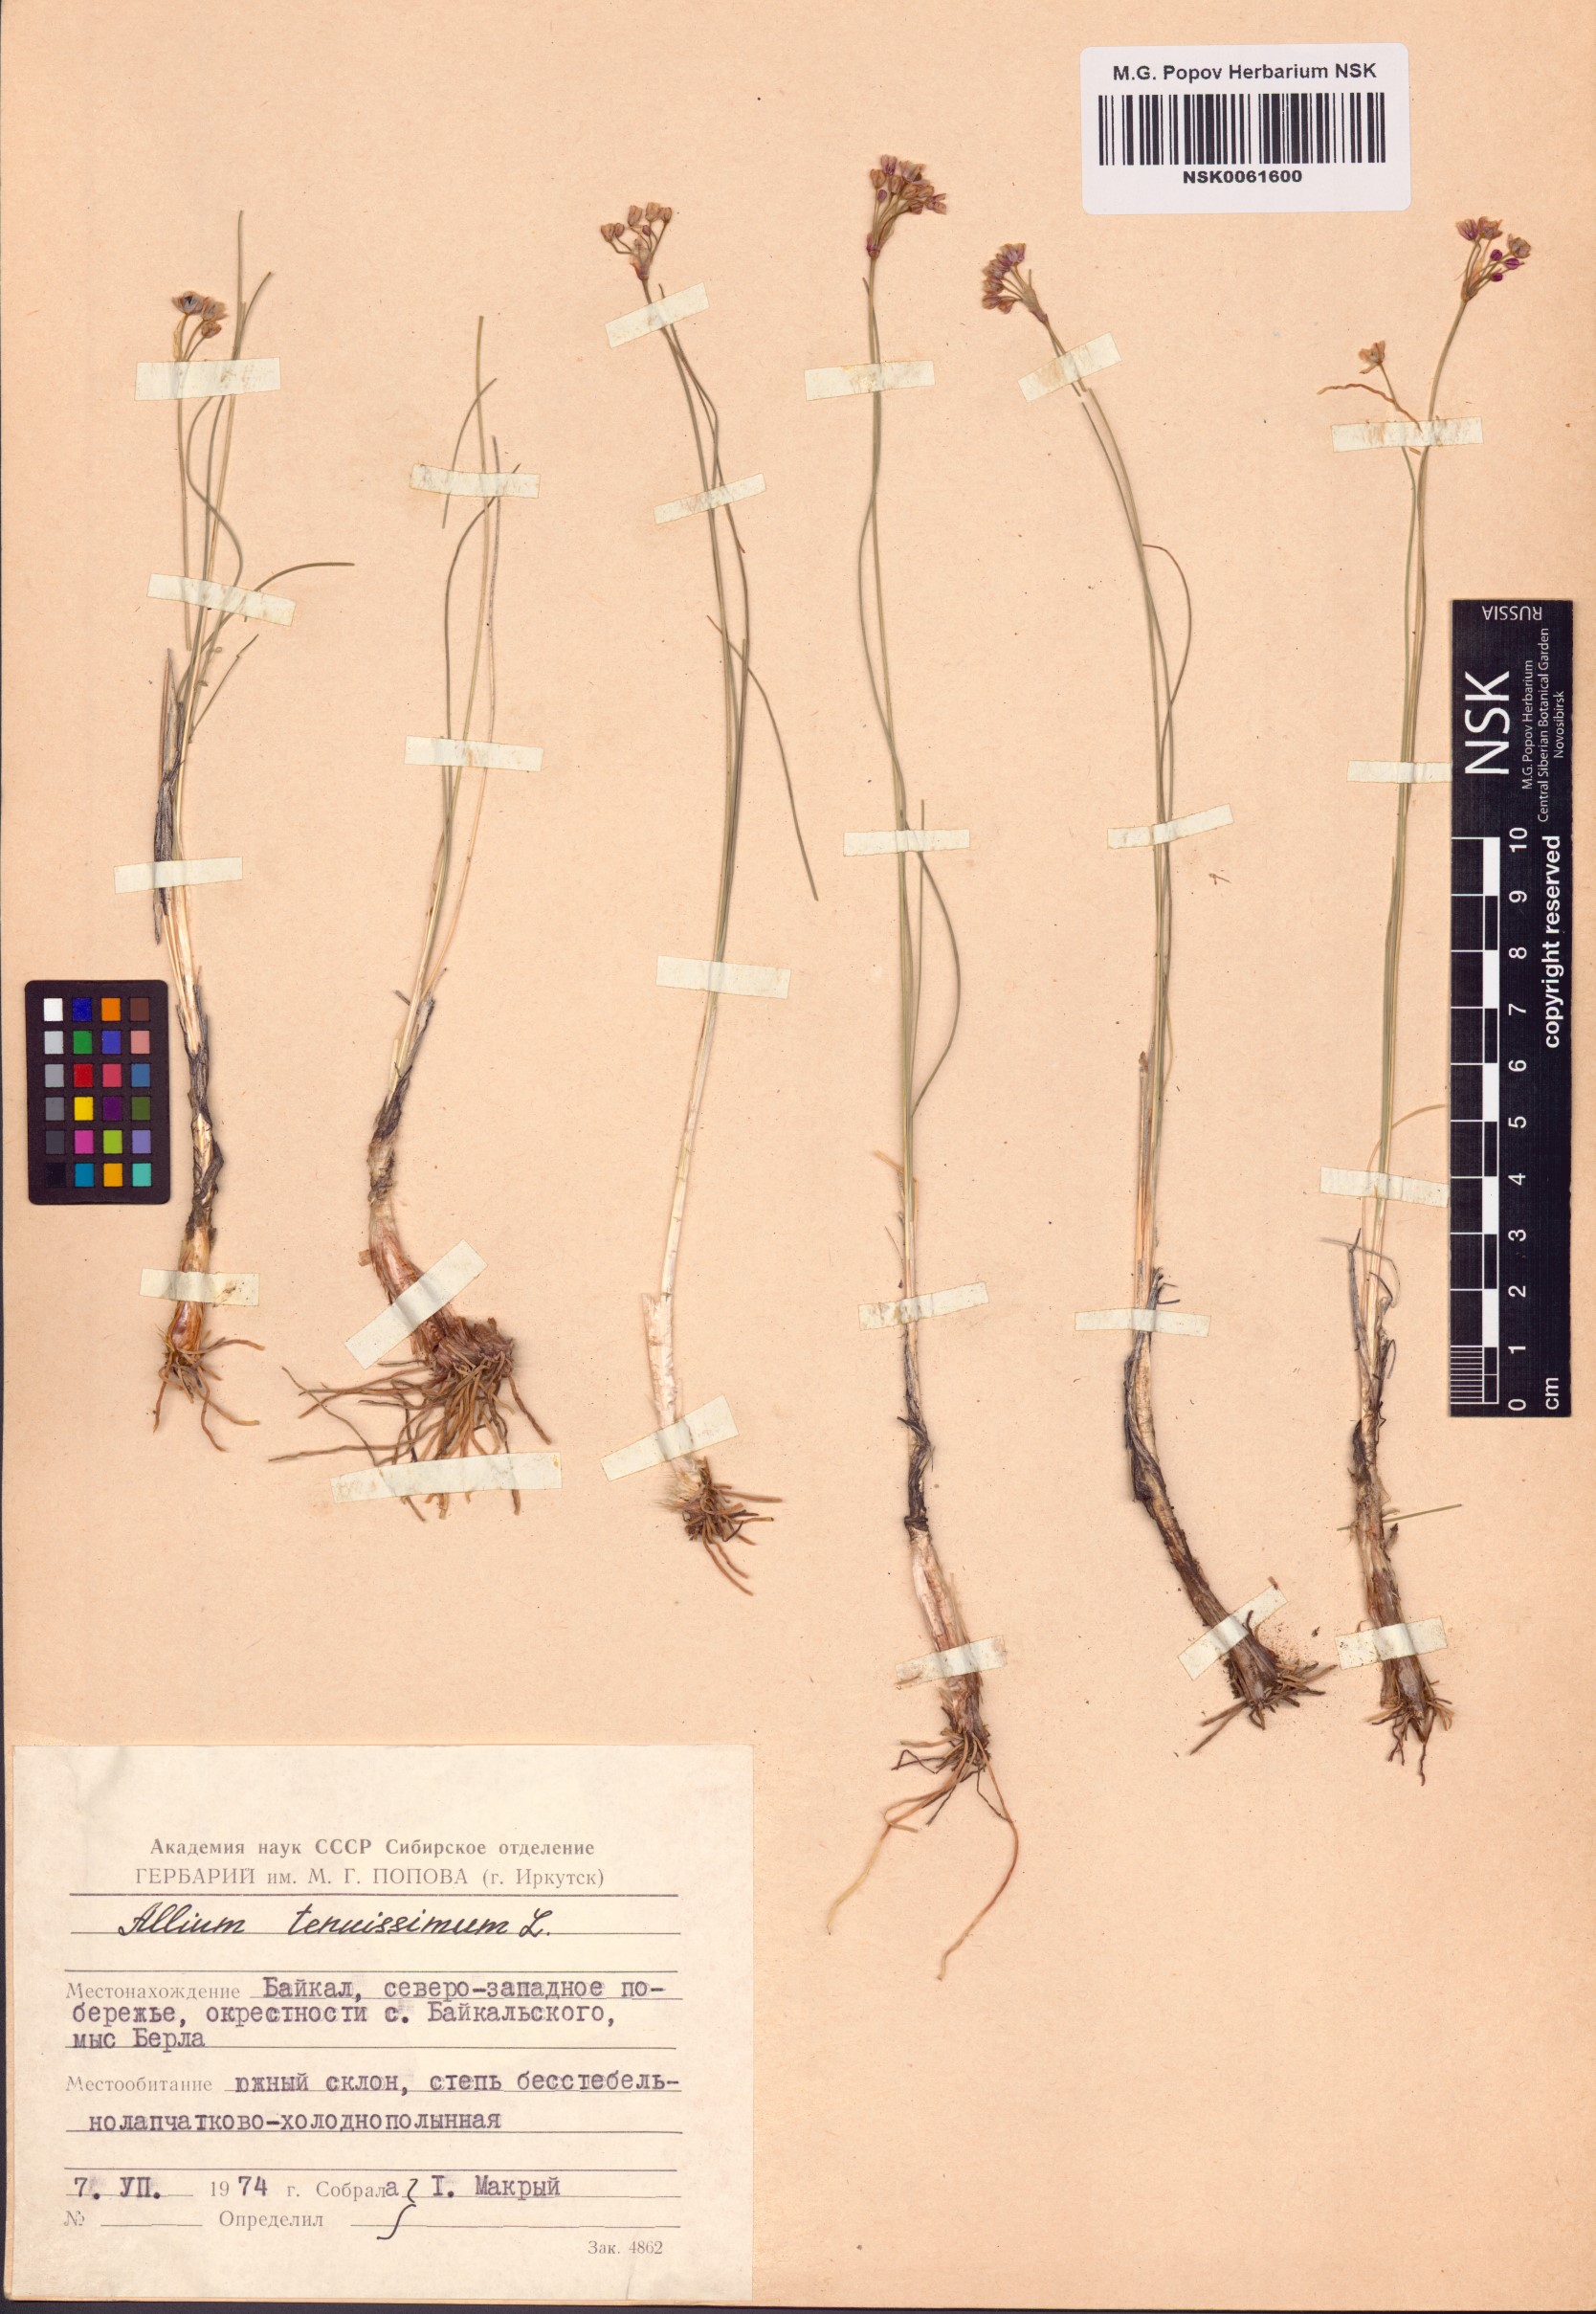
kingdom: Plantae
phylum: Tracheophyta
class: Liliopsida
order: Asparagales
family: Amaryllidaceae
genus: Allium
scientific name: Allium tenuissimum
